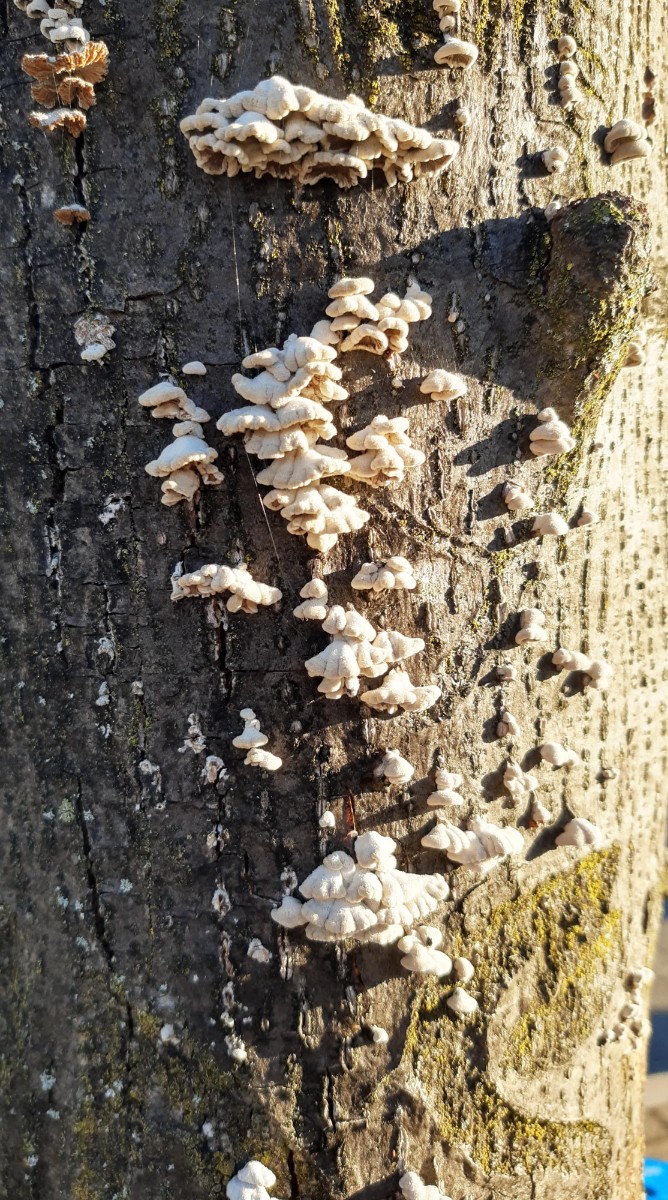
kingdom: Fungi
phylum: Basidiomycota
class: Agaricomycetes
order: Agaricales
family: Schizophyllaceae
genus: Schizophyllum
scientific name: Schizophyllum commune
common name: kløvblad
